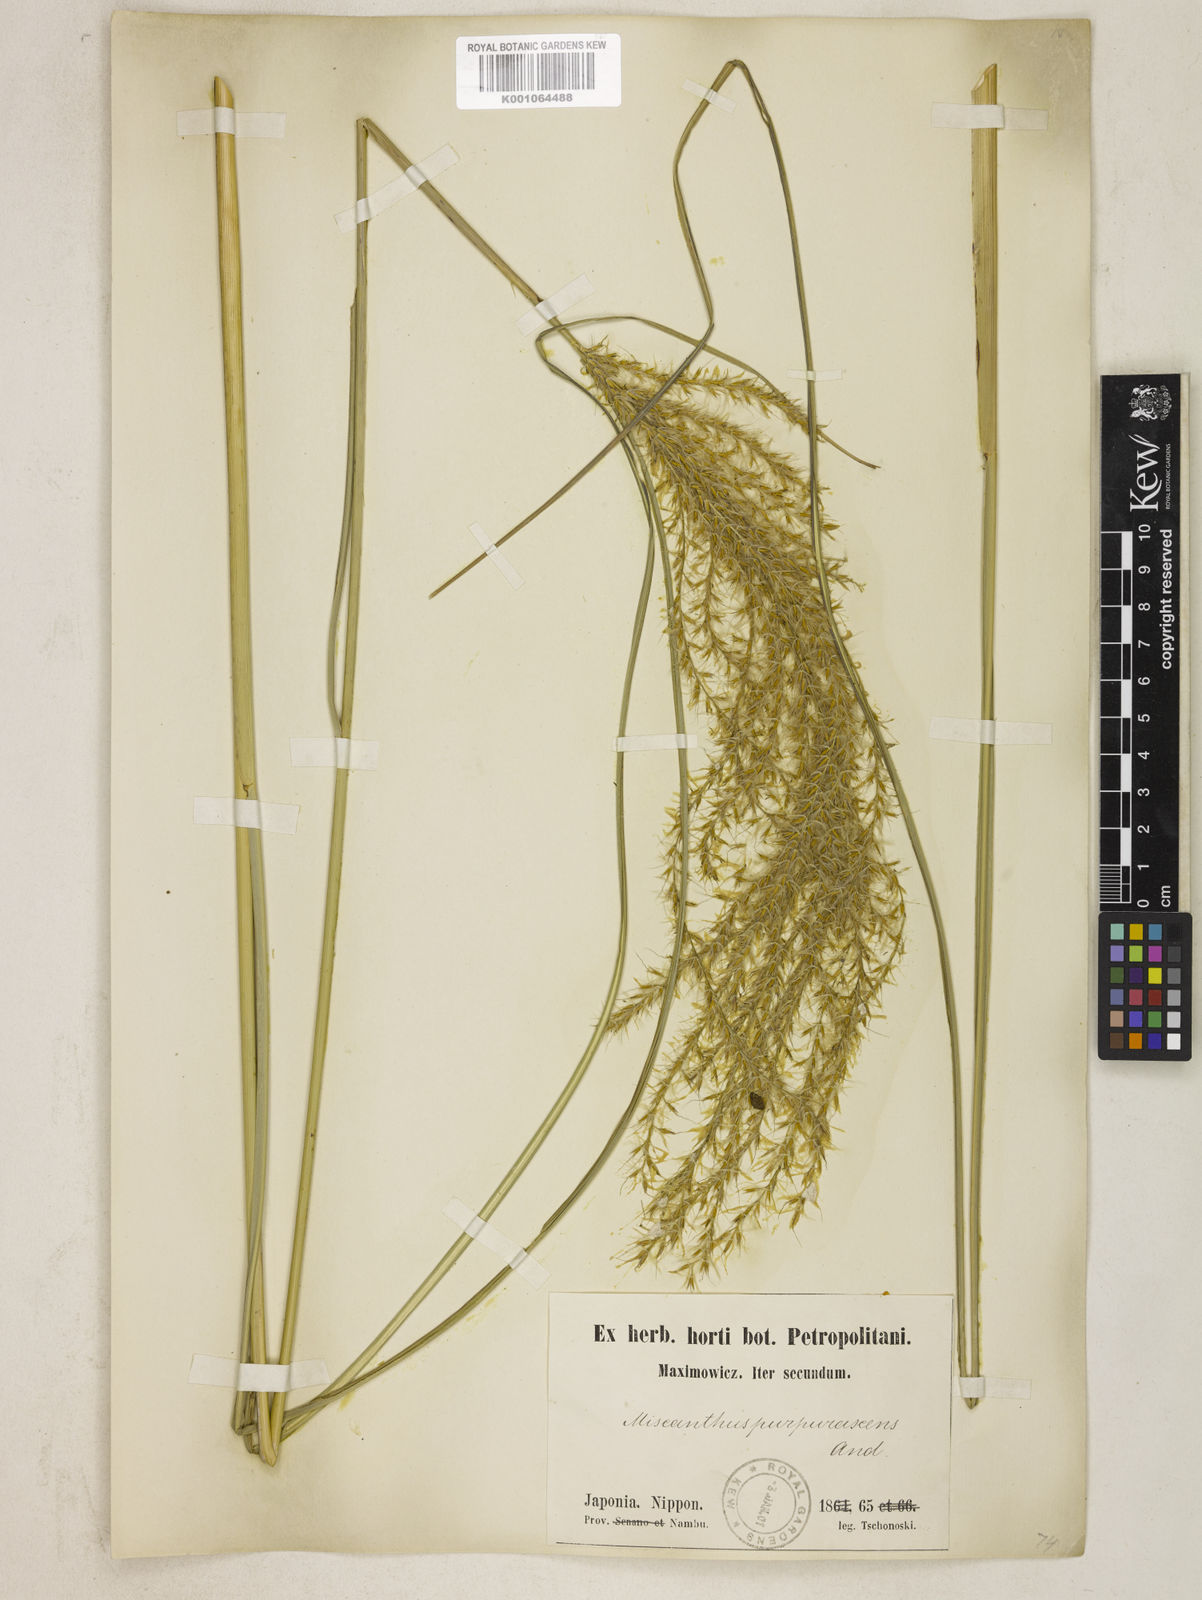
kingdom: Plantae
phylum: Tracheophyta
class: Liliopsida
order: Poales
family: Poaceae
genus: Miscanthus
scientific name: Miscanthus sinensis
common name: Chinese silvergrass
